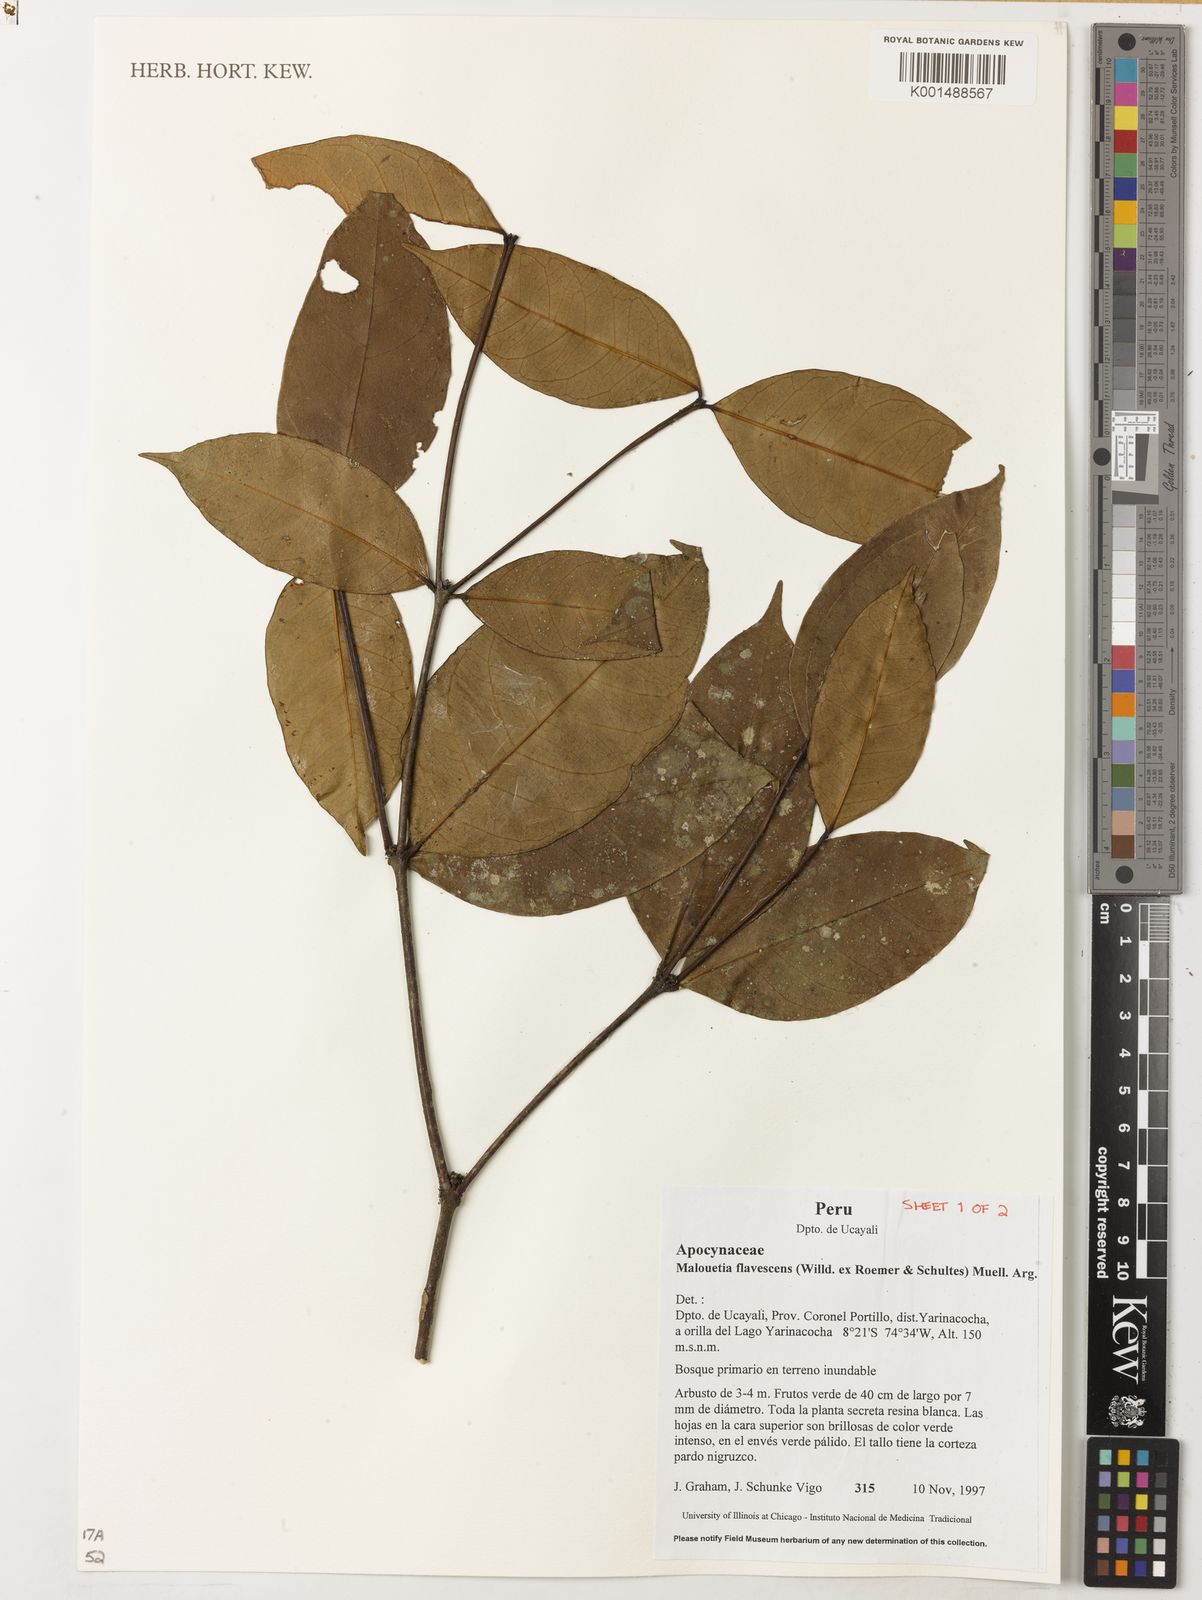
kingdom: Plantae
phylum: Tracheophyta
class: Magnoliopsida
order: Gentianales
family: Apocynaceae
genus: Malouetia
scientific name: Malouetia flavescens
